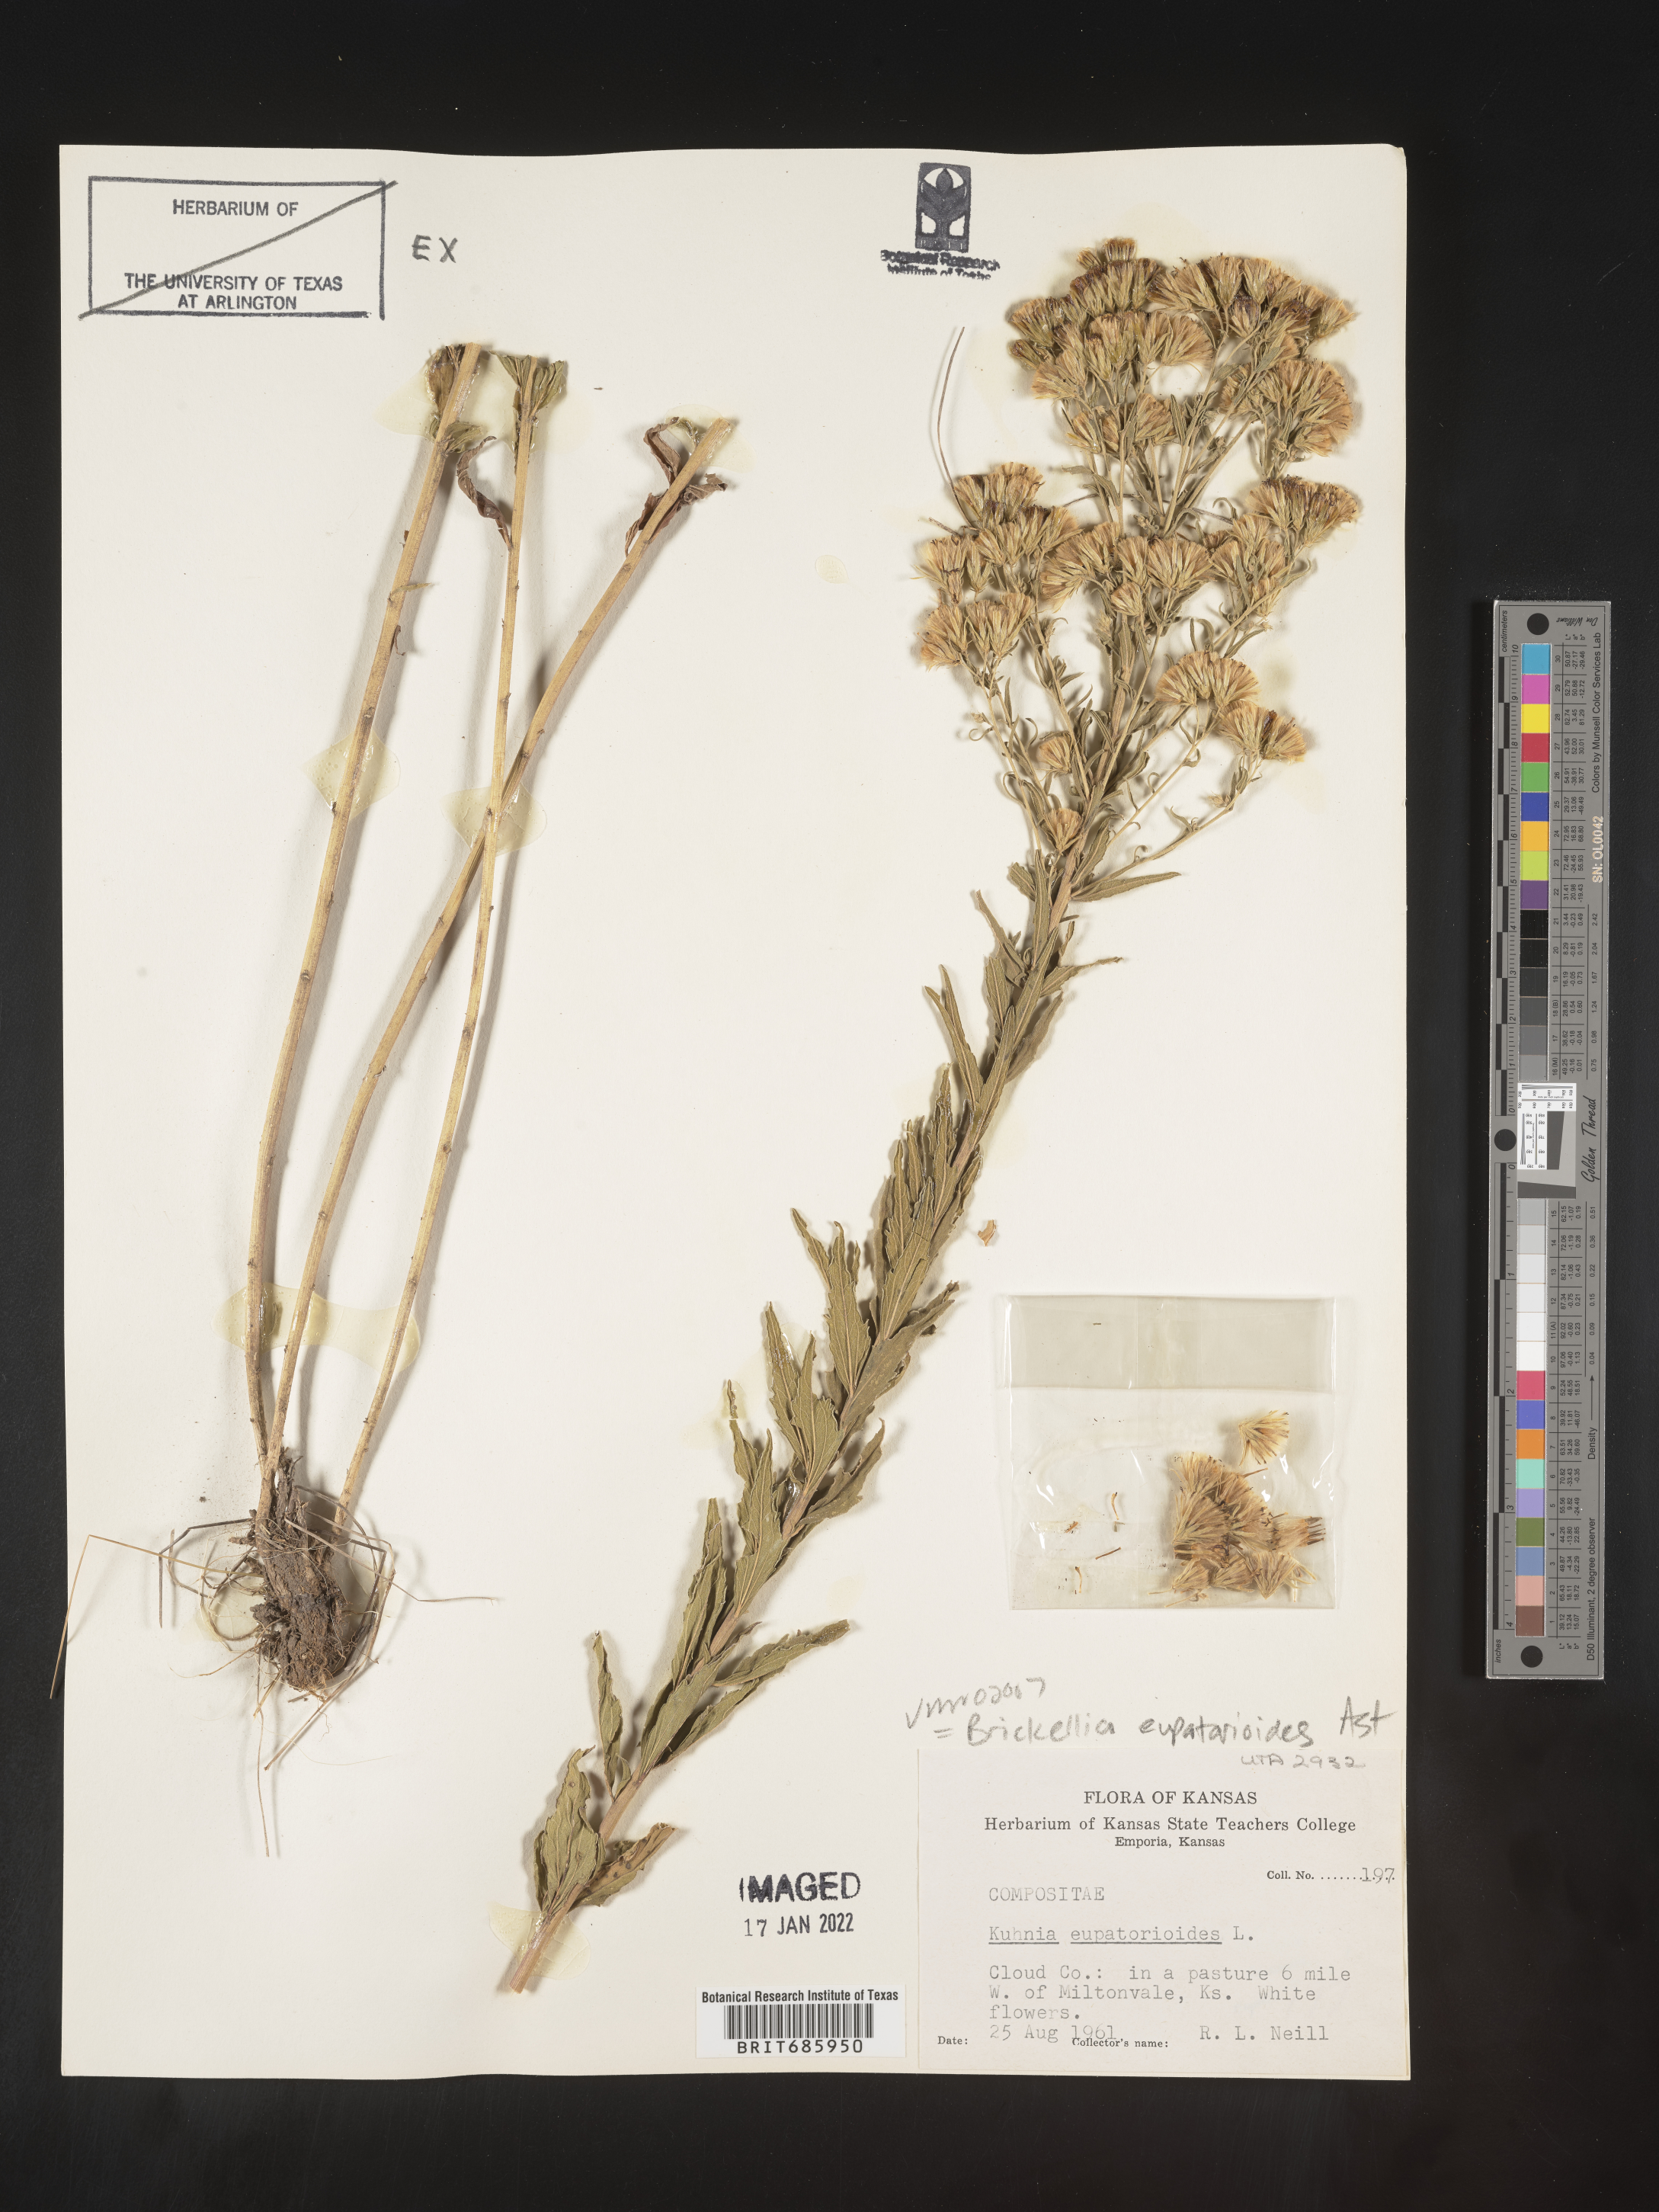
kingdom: Plantae
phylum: Tracheophyta
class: Magnoliopsida
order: Asterales
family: Asteraceae
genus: Brickellia
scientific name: Brickellia eupatorioides
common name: False boneset
